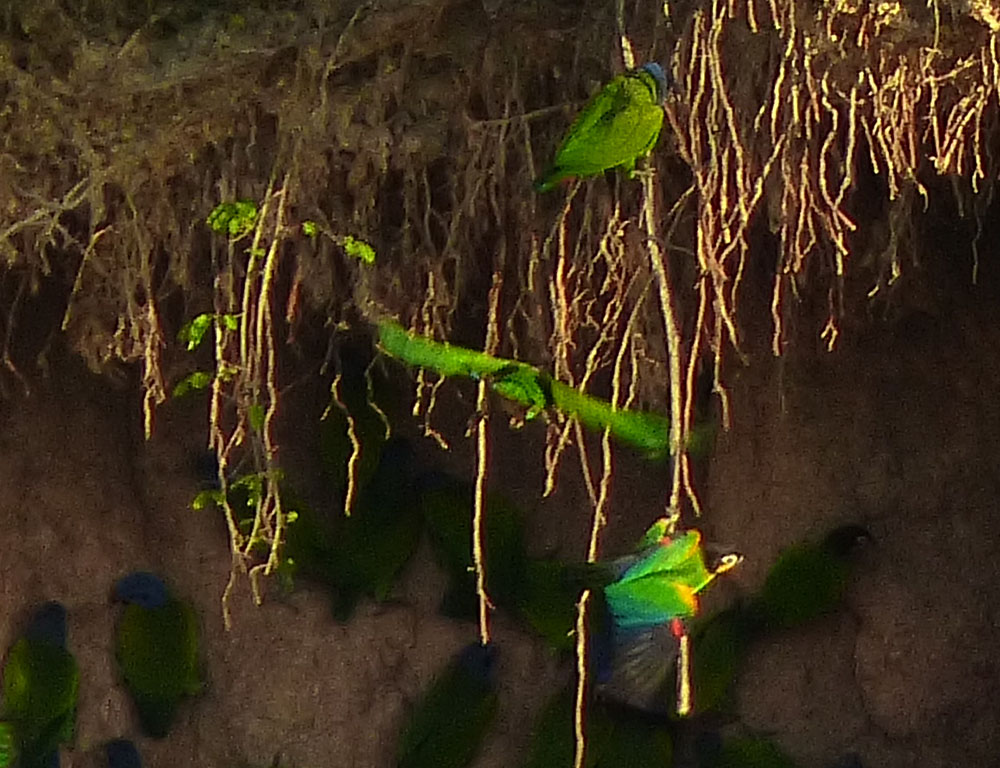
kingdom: Animalia
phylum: Chordata
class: Aves
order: Psittaciformes
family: Psittacidae
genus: Pionopsitta
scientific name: Pionopsitta barrabandi
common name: Orange-cheeked parrot
